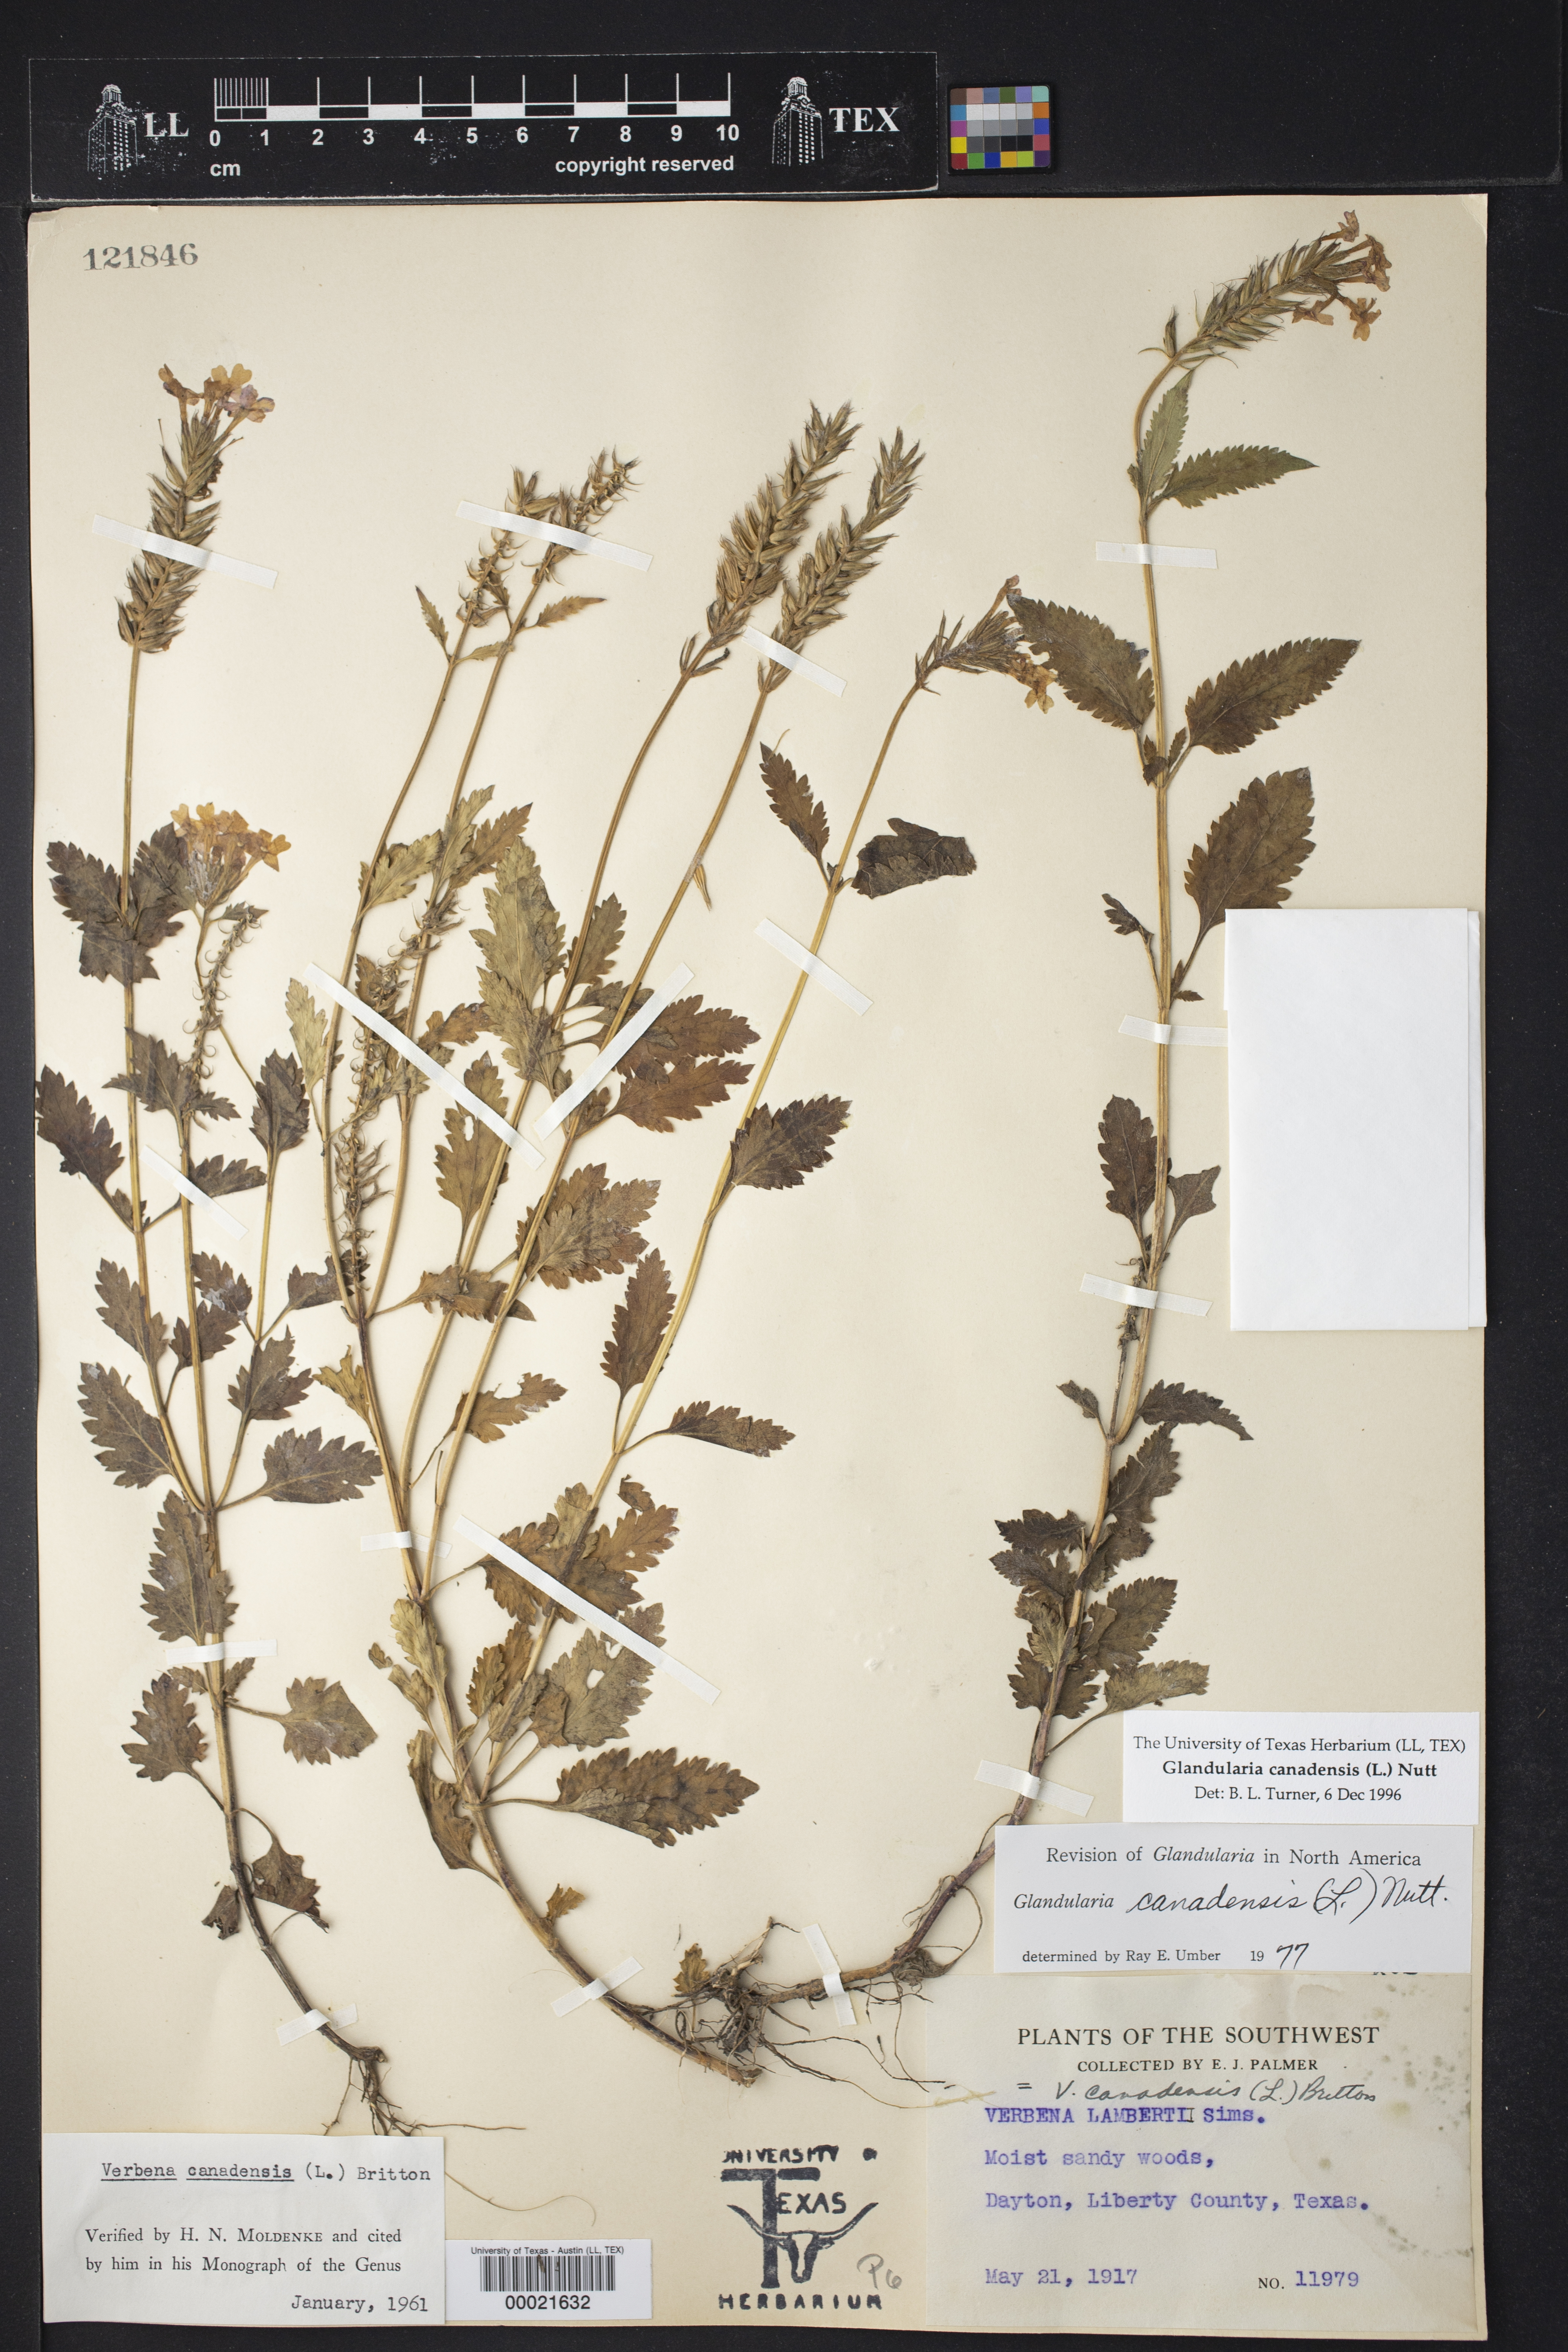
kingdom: Plantae
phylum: Tracheophyta
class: Magnoliopsida
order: Lamiales
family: Verbenaceae
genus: Verbena
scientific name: Verbena canadensis
